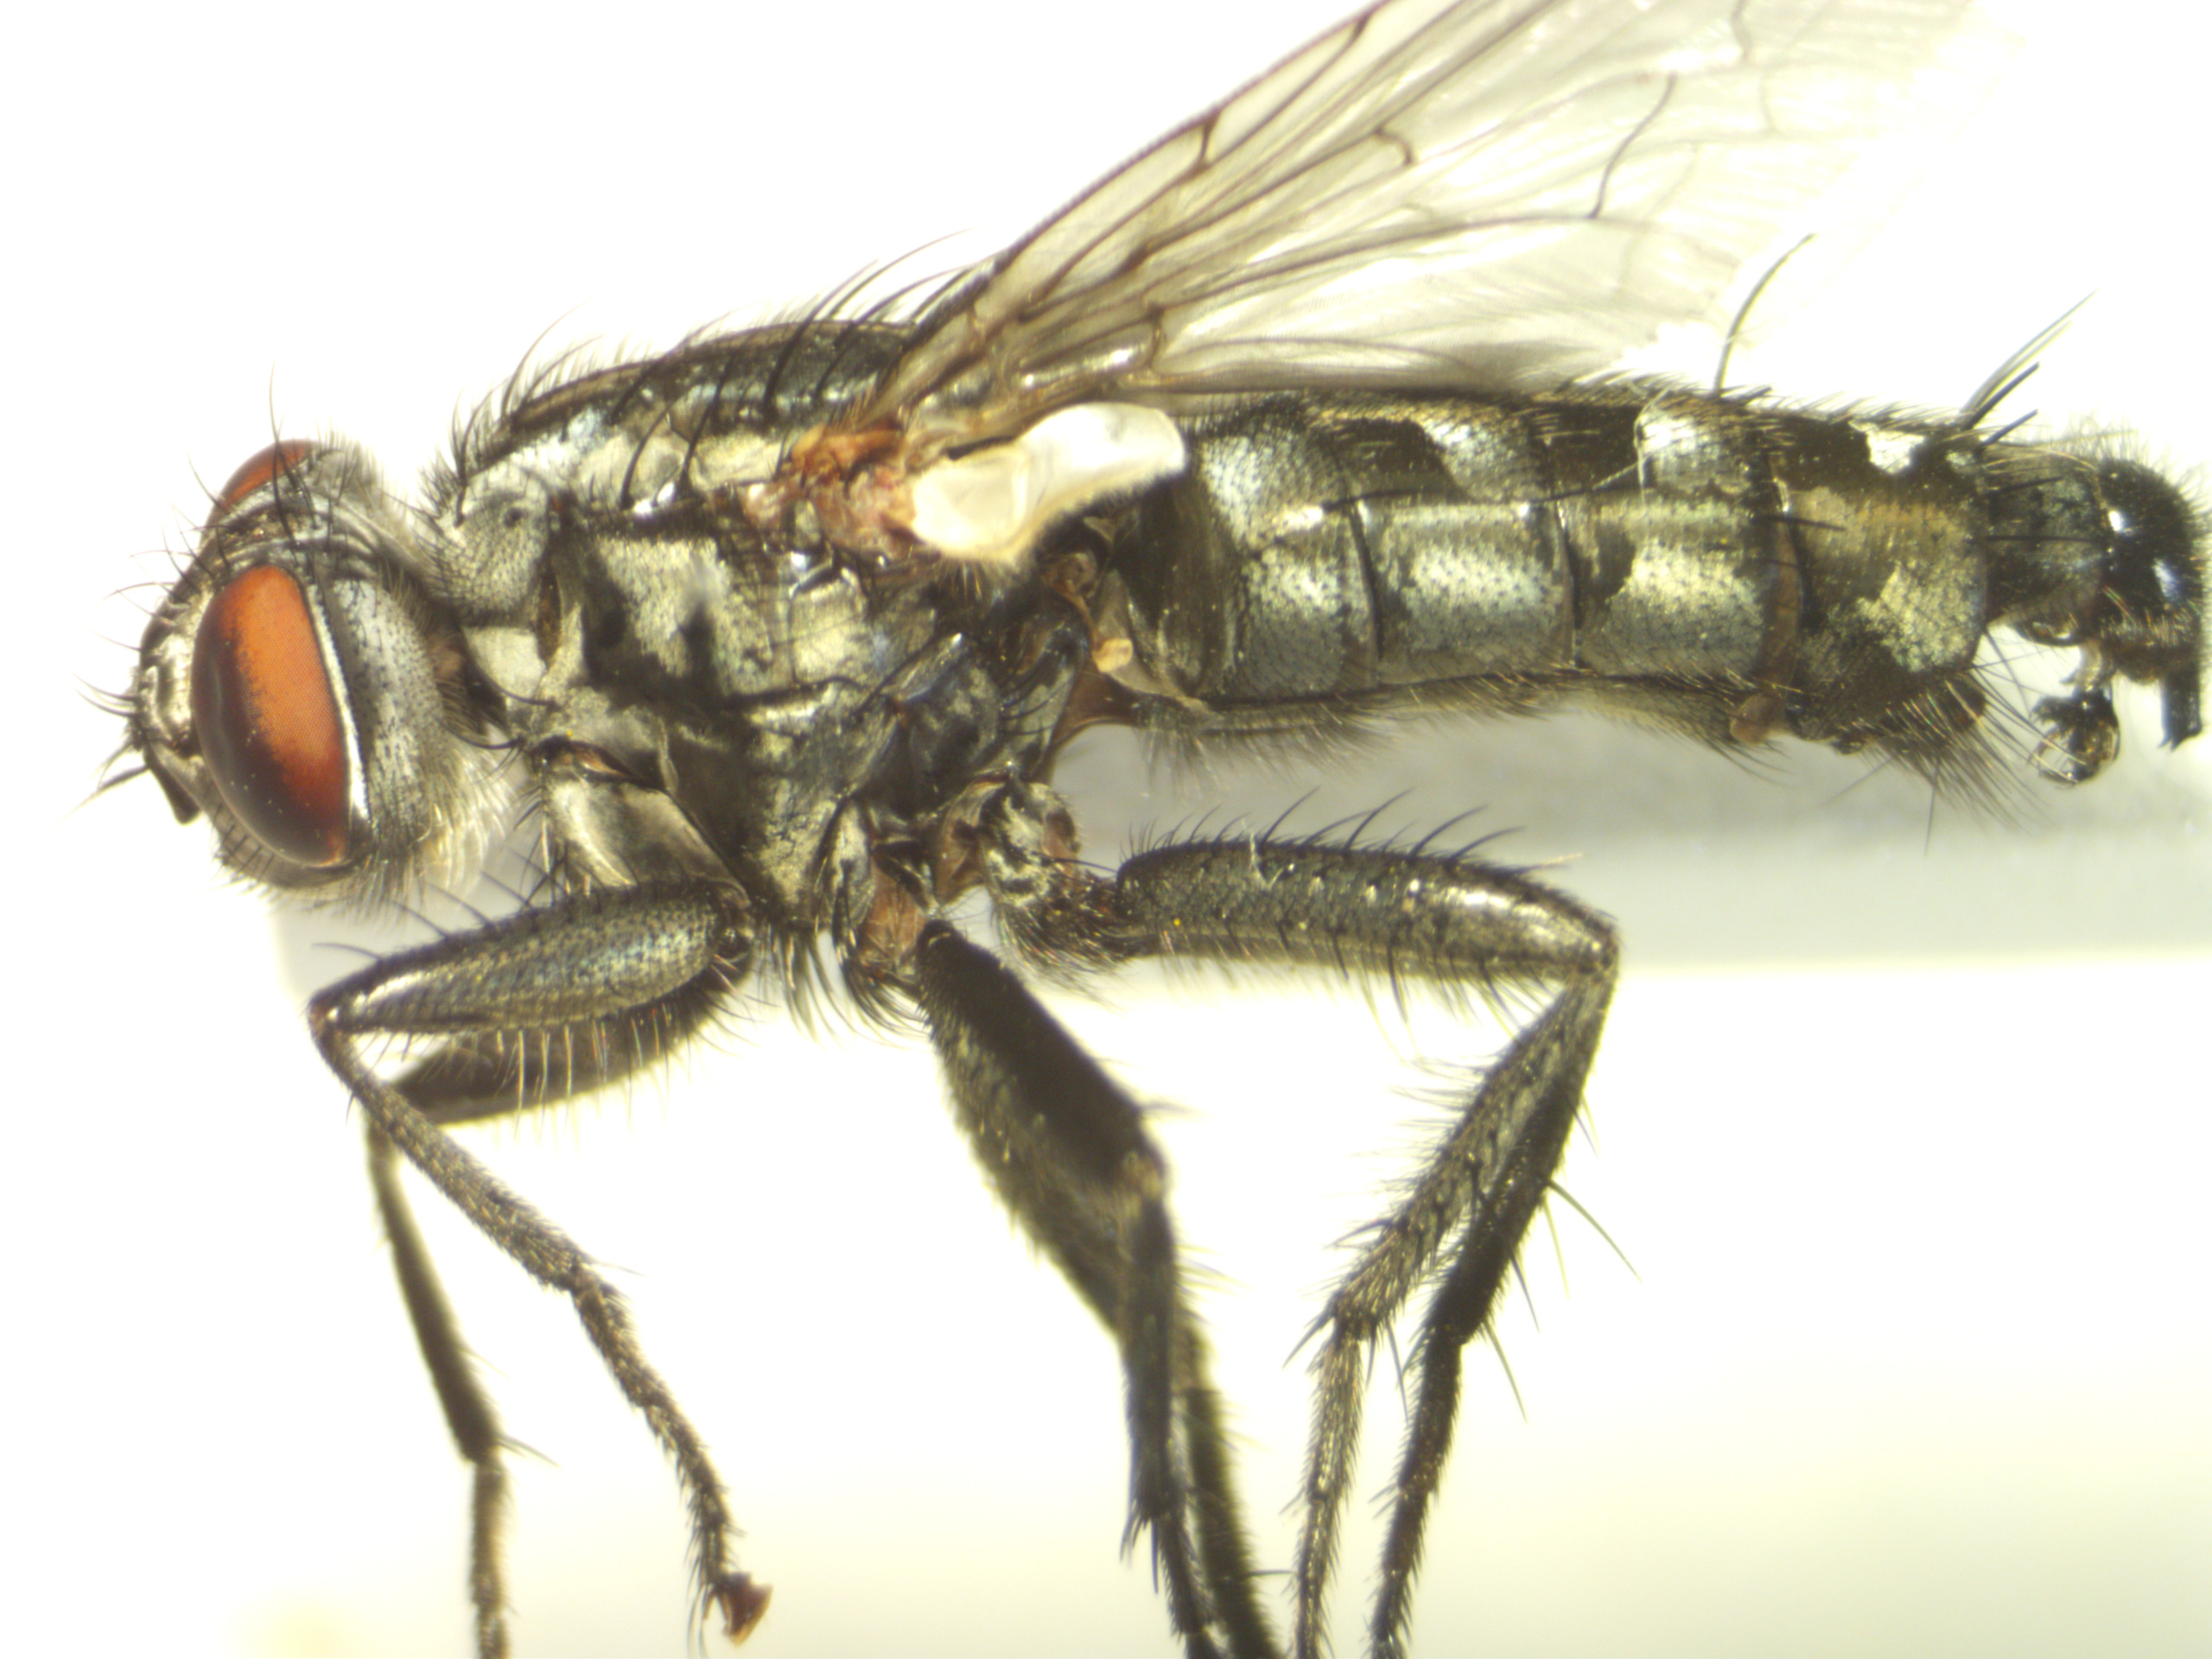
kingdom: Animalia
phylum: Arthropoda
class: Insecta
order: Diptera
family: Sarcophagidae
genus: Sarcophaga
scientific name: Sarcophaga incisilobata
